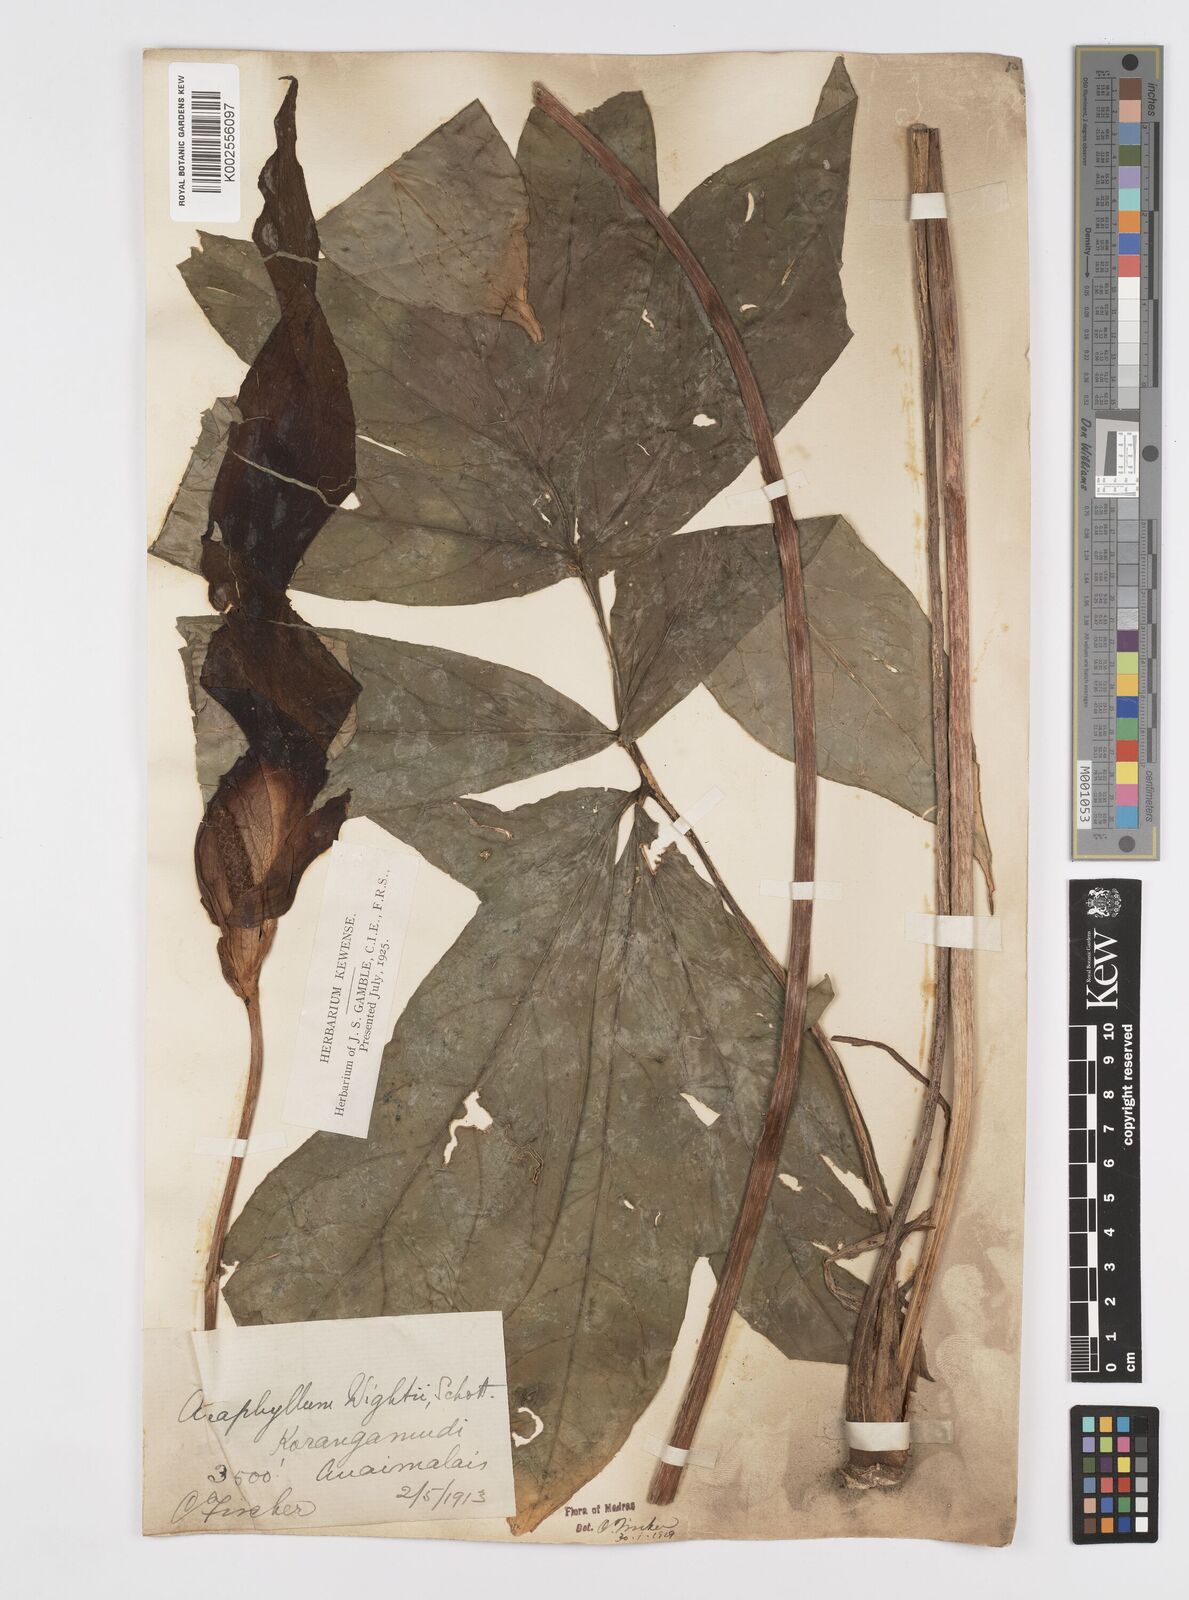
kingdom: Plantae
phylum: Tracheophyta
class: Liliopsida
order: Alismatales
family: Araceae
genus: Anaphyllum
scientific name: Anaphyllum wightii
